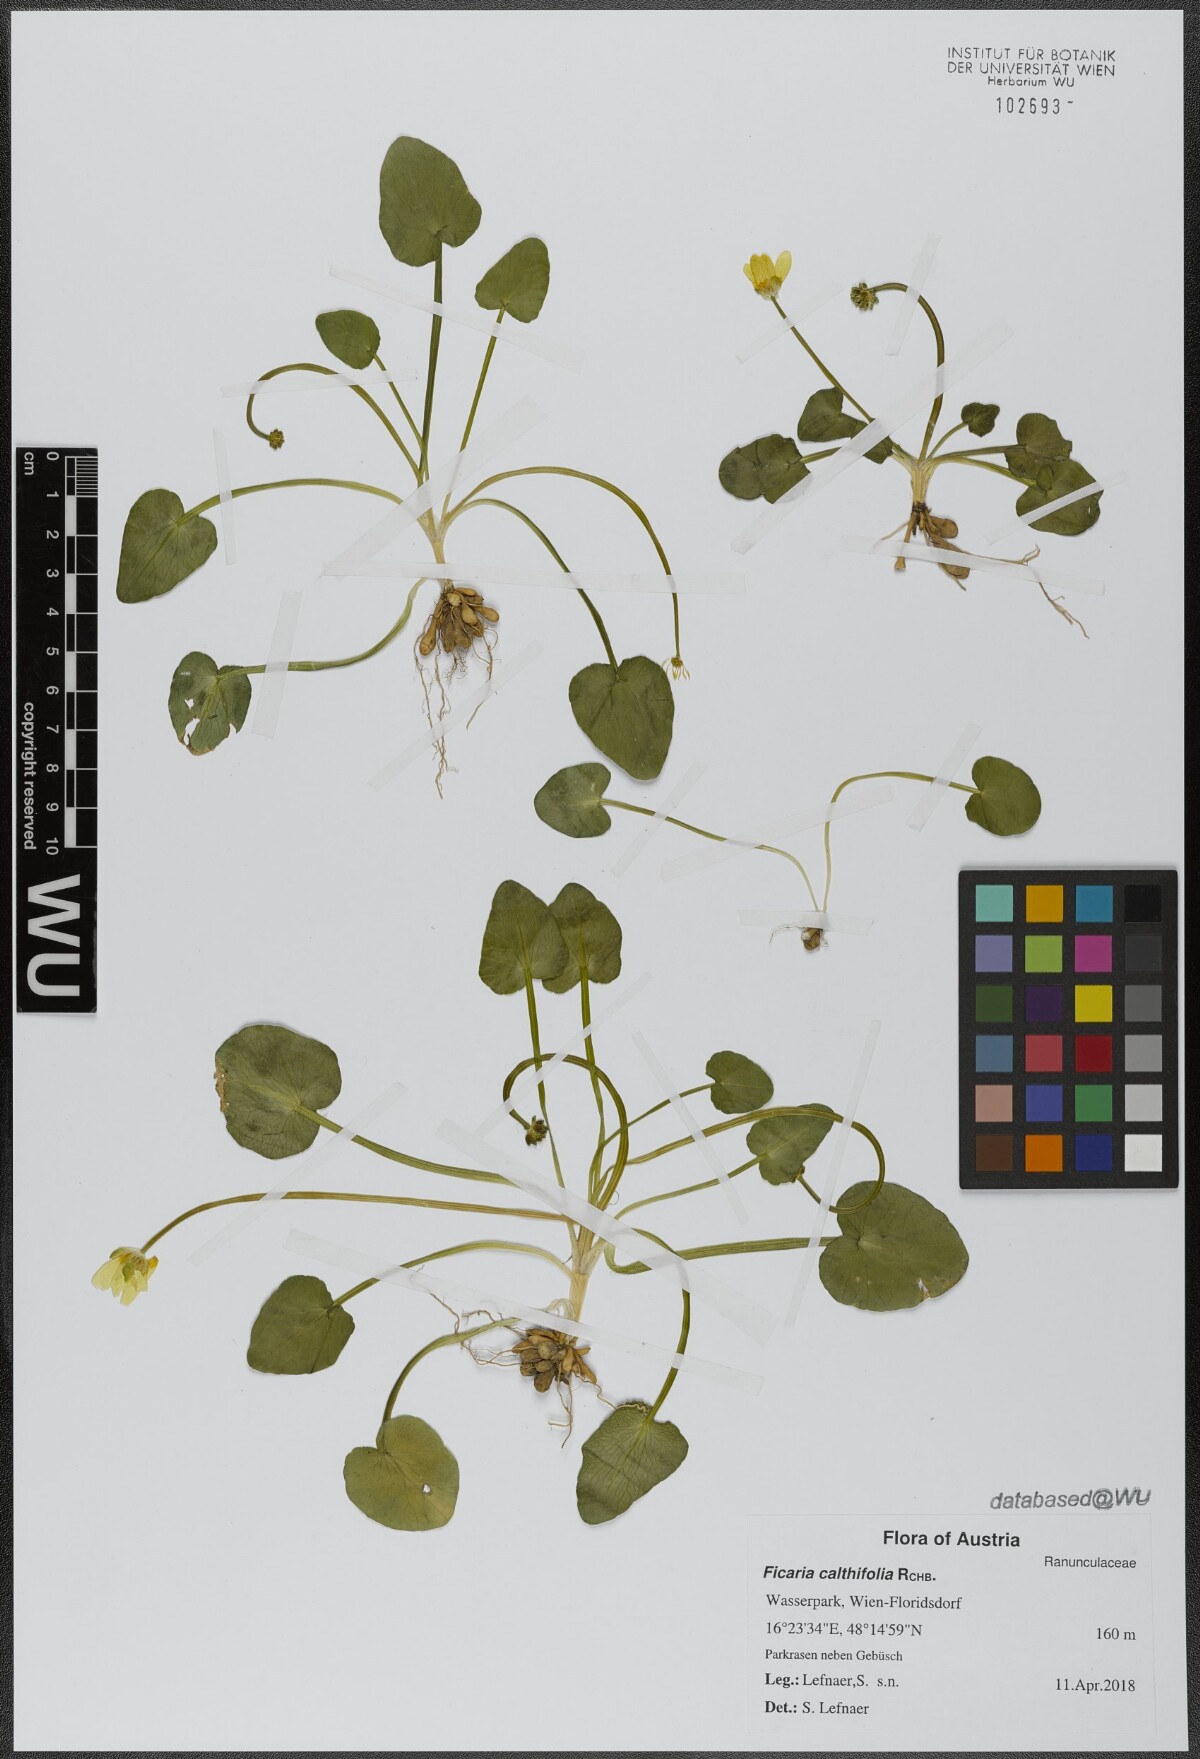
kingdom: Plantae
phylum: Tracheophyta
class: Magnoliopsida
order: Ranunculales
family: Ranunculaceae
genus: Ficaria
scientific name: Ficaria calthifolia
